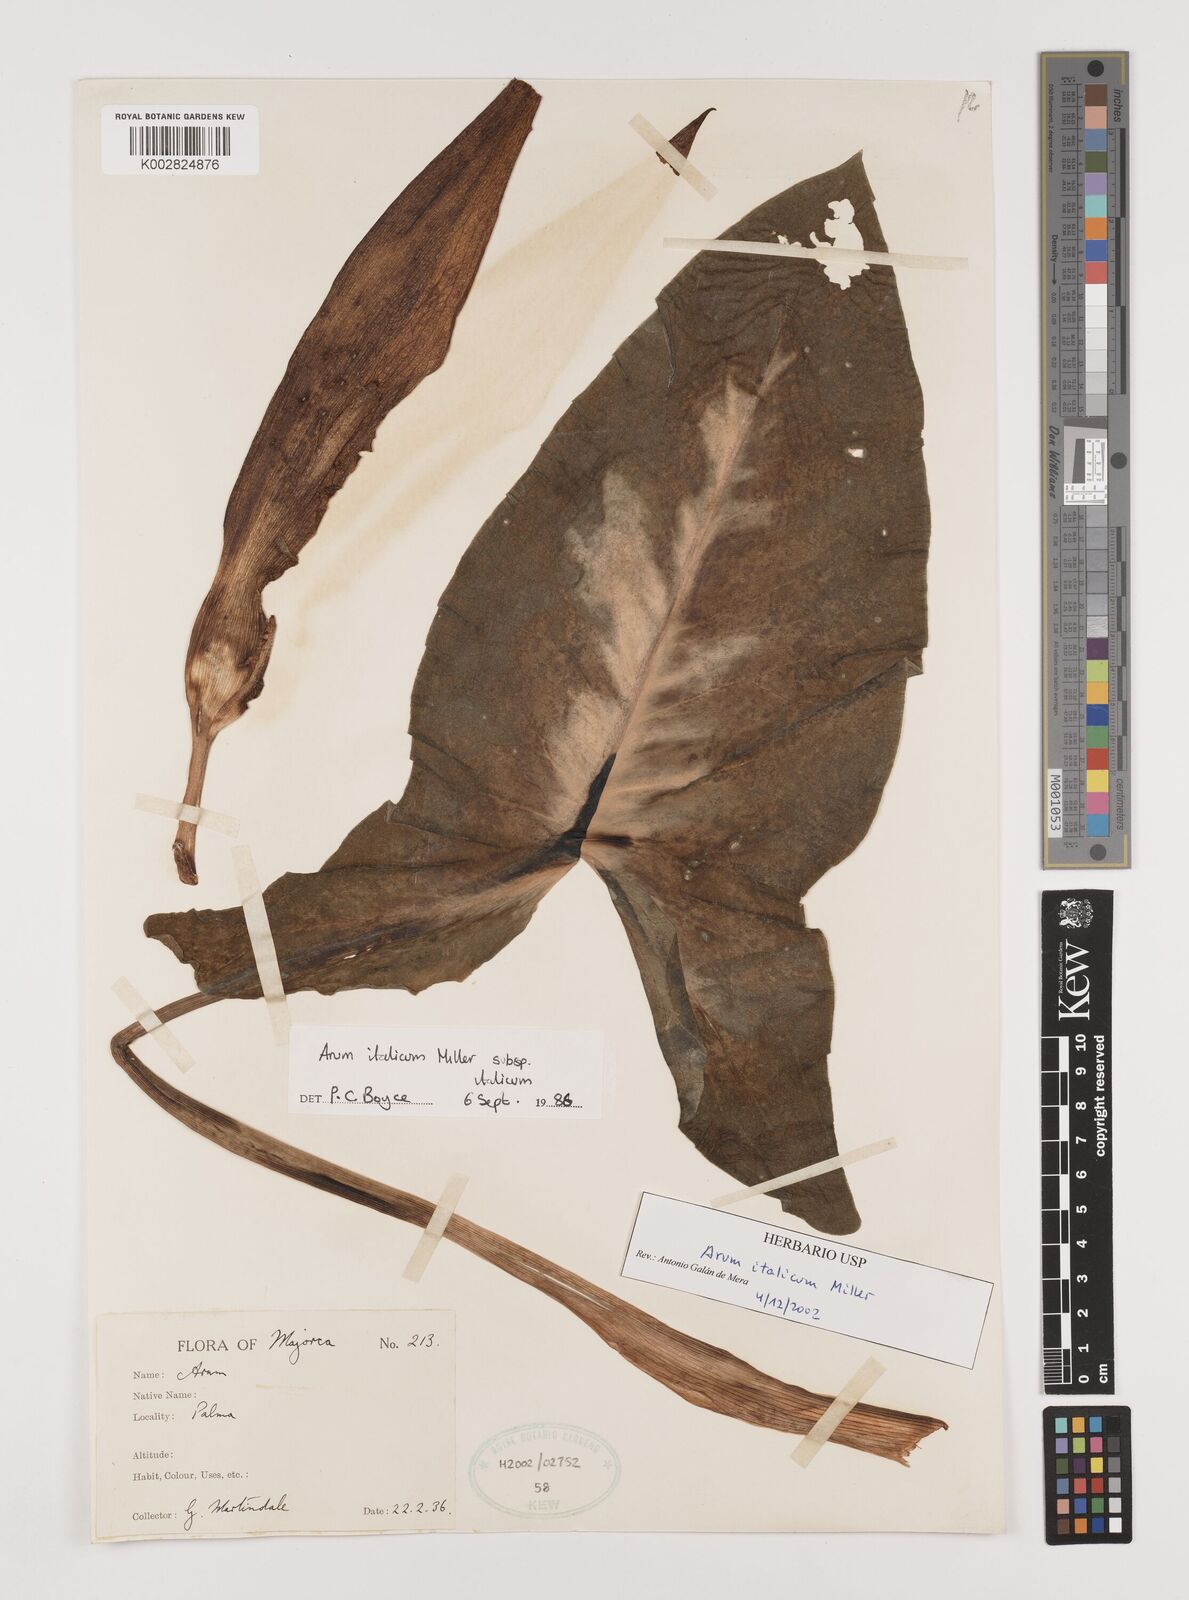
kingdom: Plantae
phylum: Tracheophyta
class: Liliopsida
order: Alismatales
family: Araceae
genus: Arum
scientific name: Arum italicum
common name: Italian lords-and-ladies
